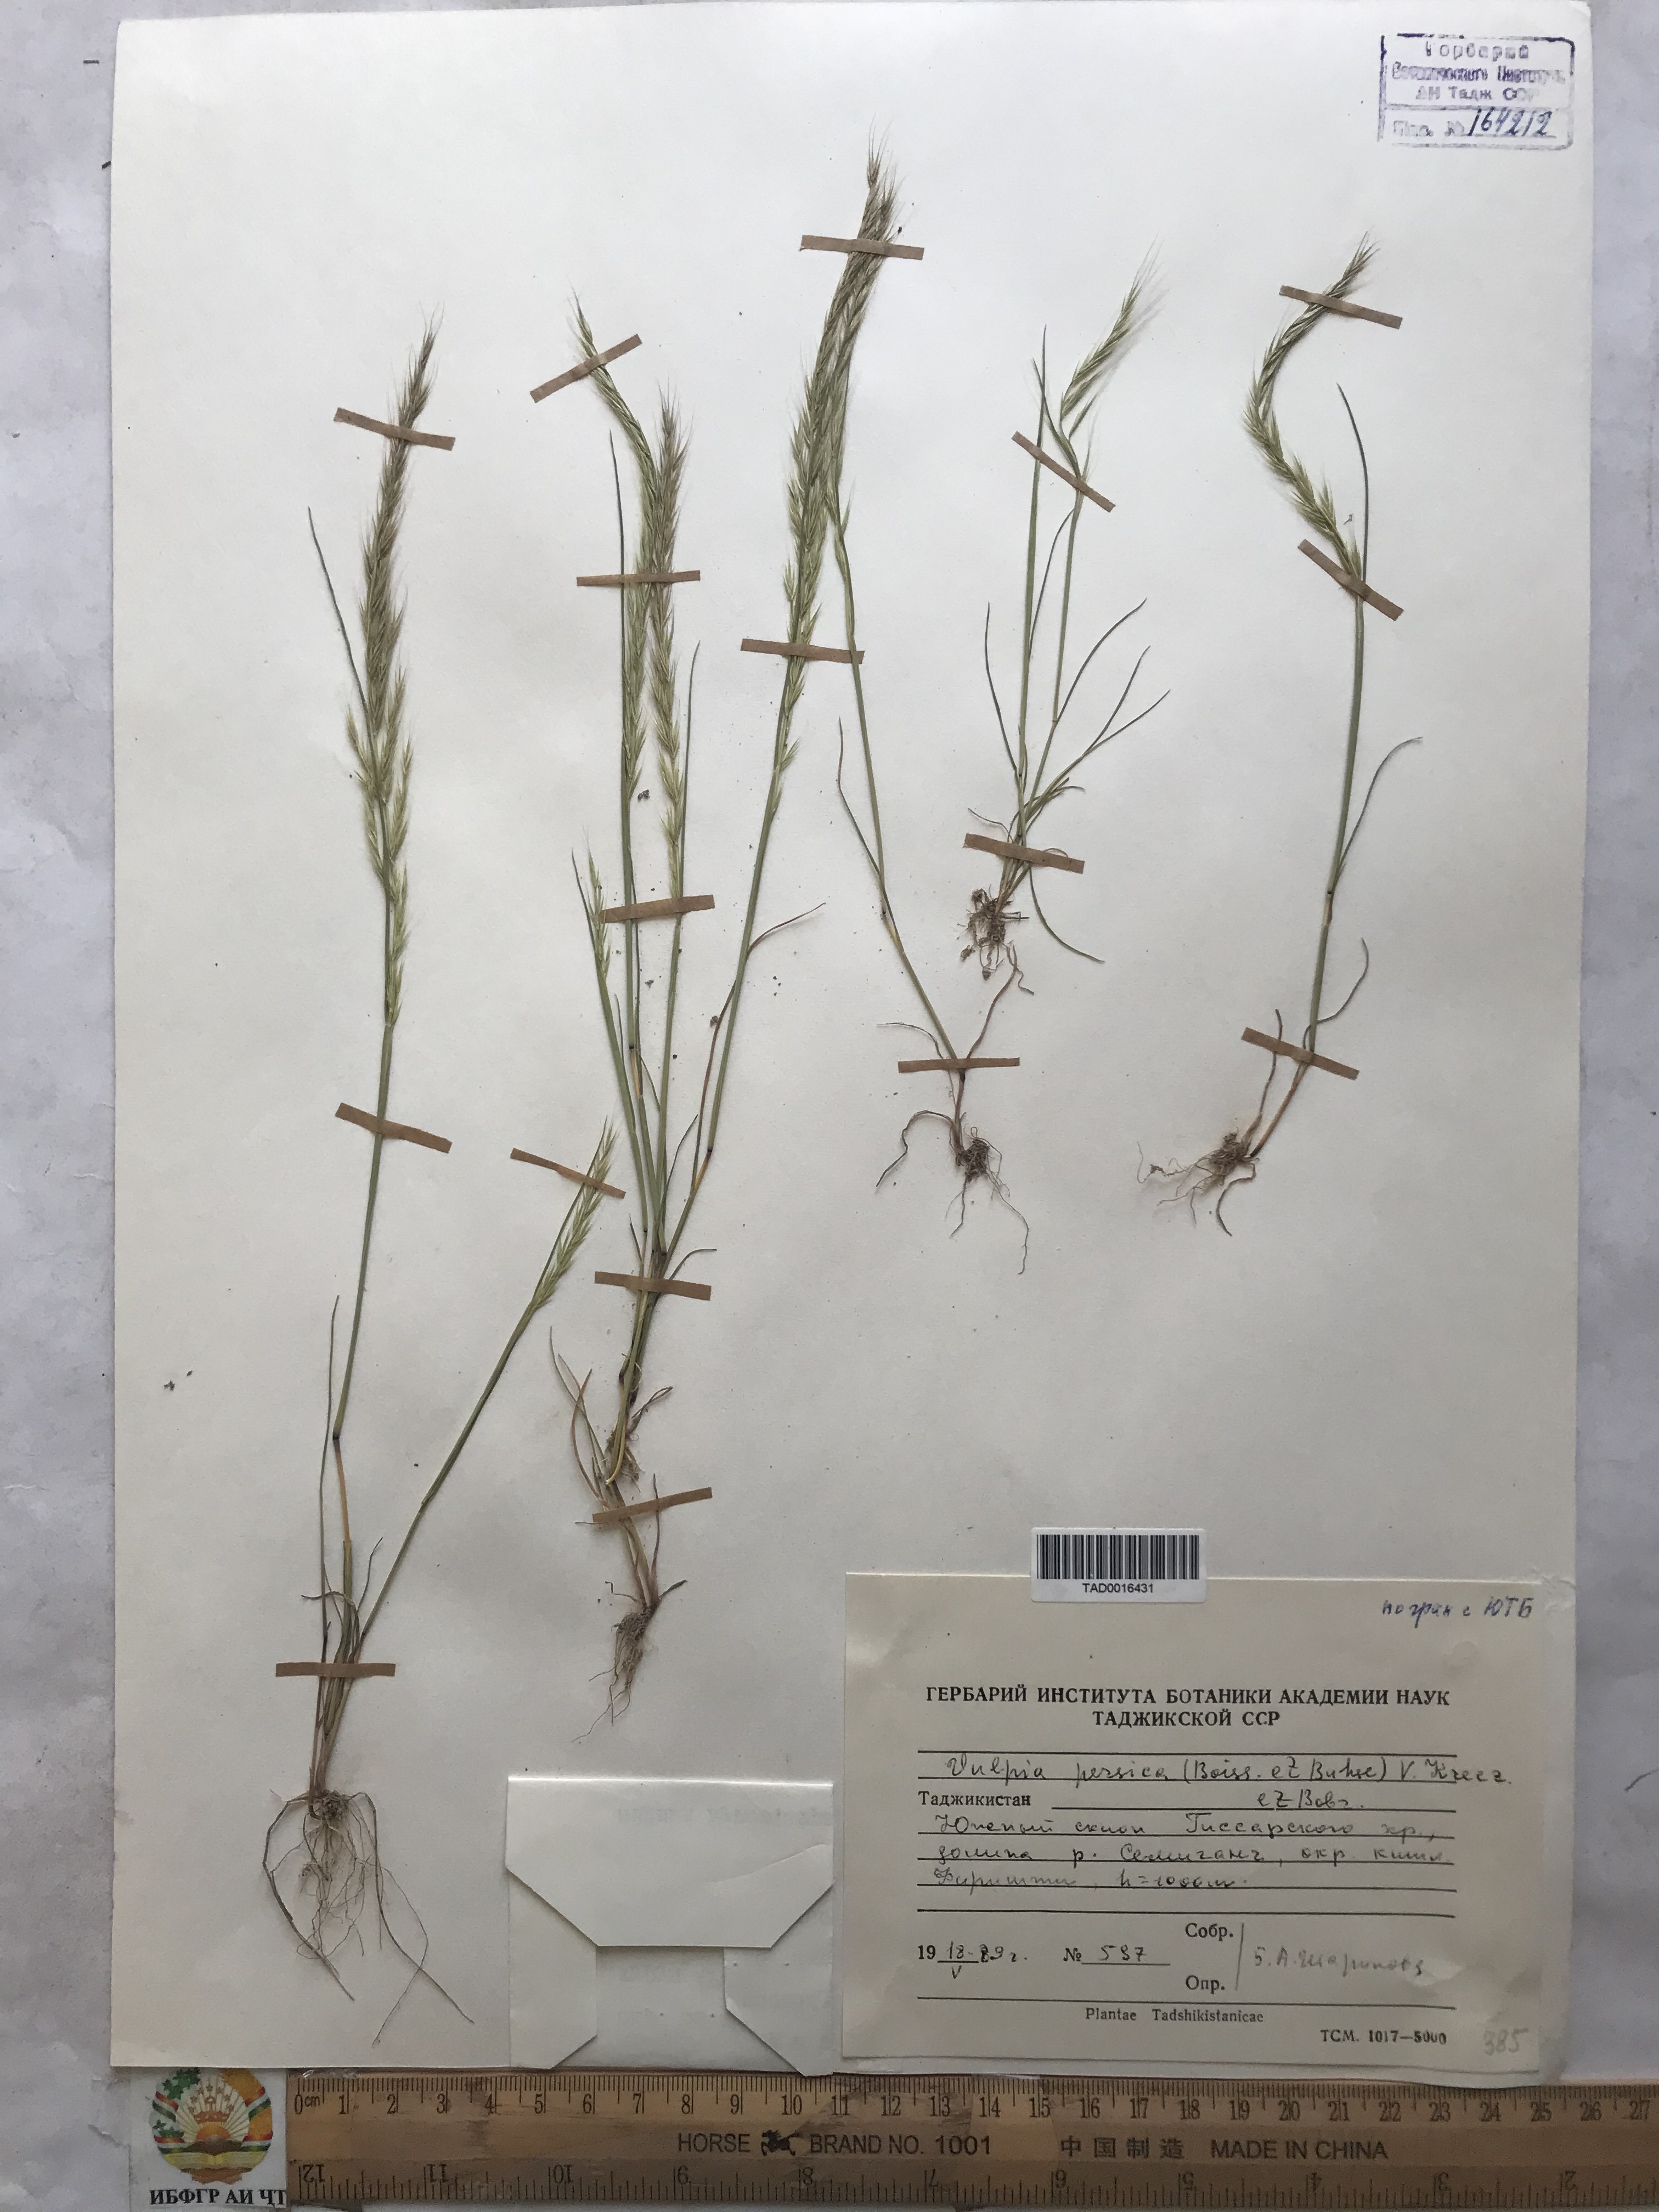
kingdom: Plantae
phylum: Tracheophyta
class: Liliopsida
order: Poales
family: Poaceae
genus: Festuca
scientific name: Festuca Vulpia persica
